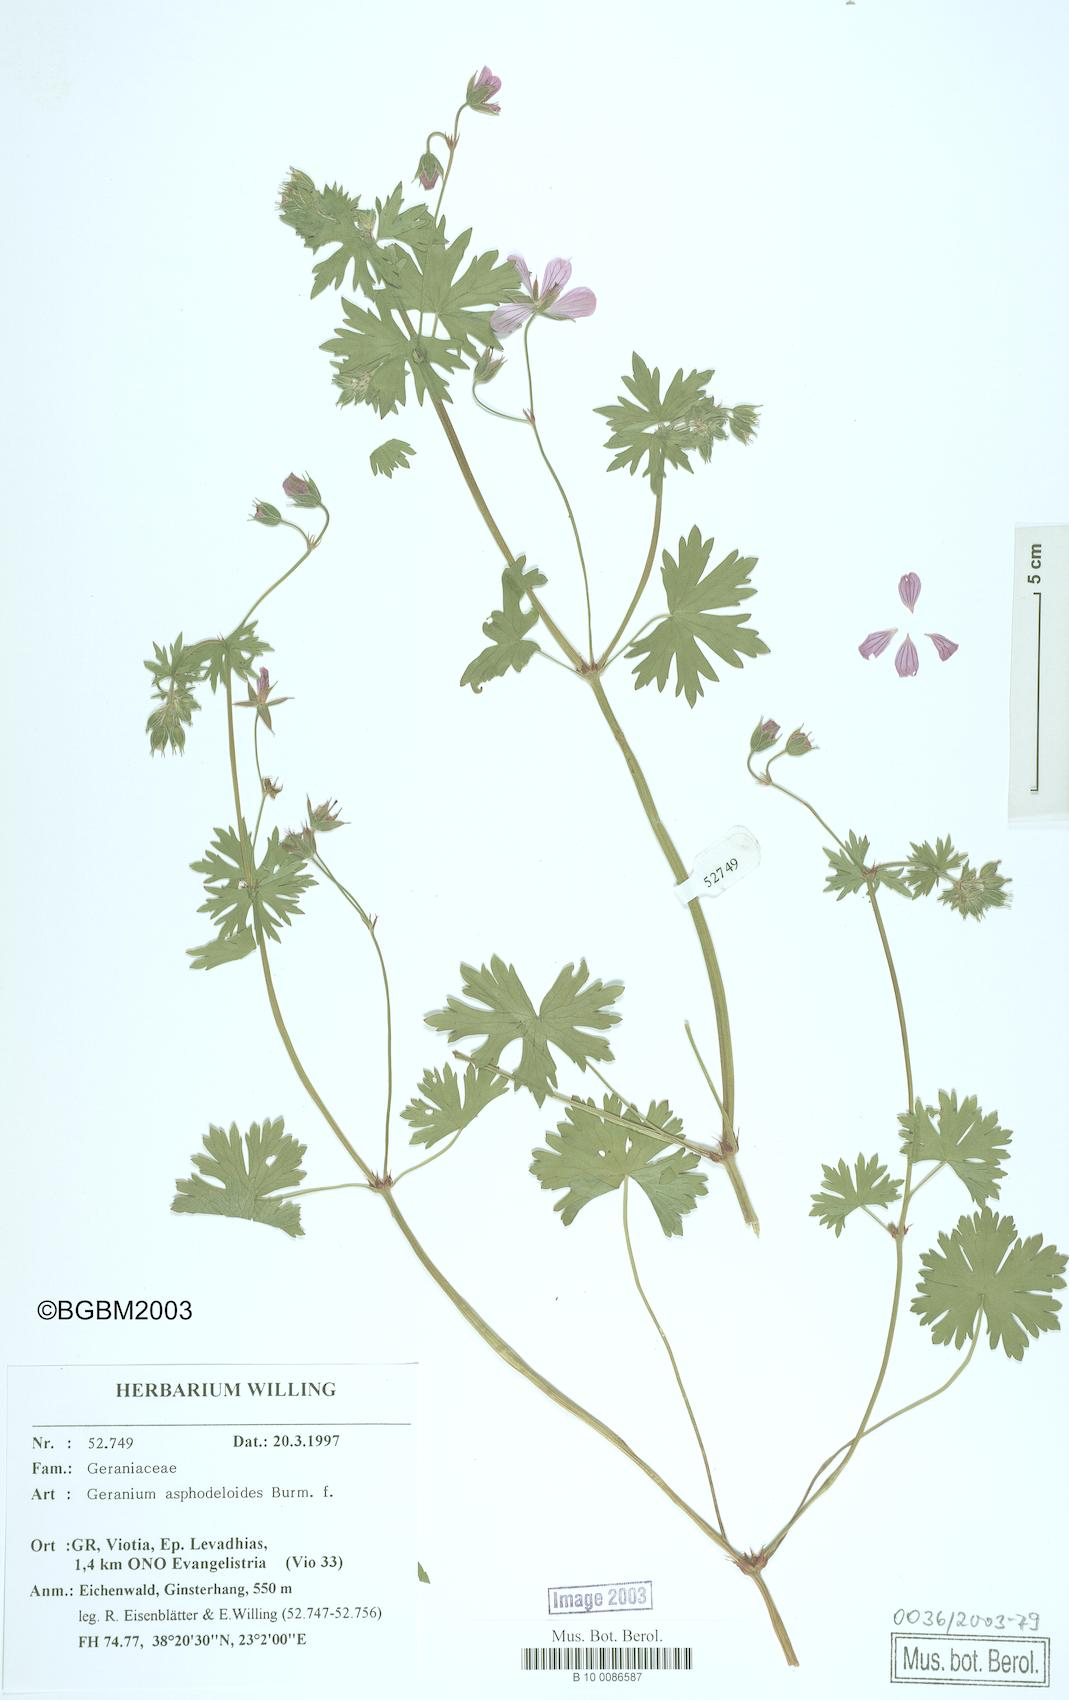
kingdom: Plantae
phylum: Tracheophyta
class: Magnoliopsida
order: Geraniales
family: Geraniaceae
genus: Geranium
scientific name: Geranium asphodeloides
